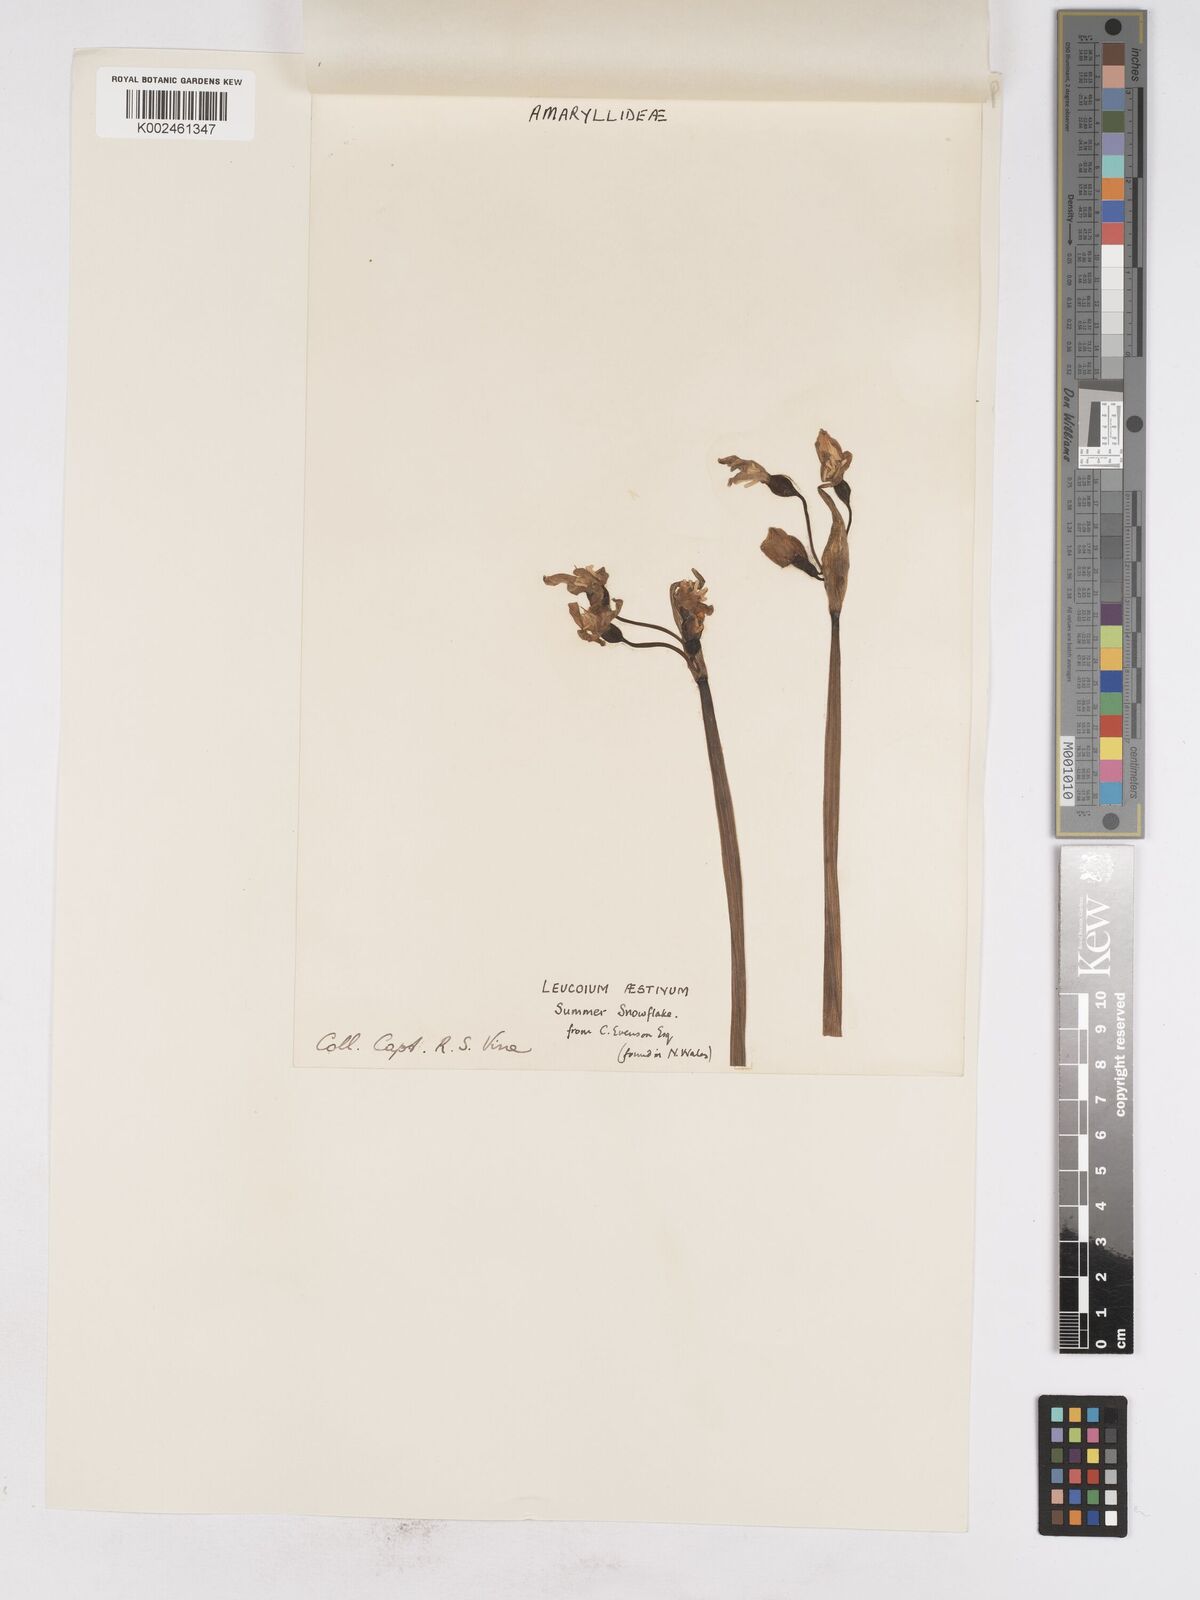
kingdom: Plantae
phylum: Tracheophyta
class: Liliopsida
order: Asparagales
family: Amaryllidaceae
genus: Leucojum
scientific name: Leucojum aestivum
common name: Summer snowflake
